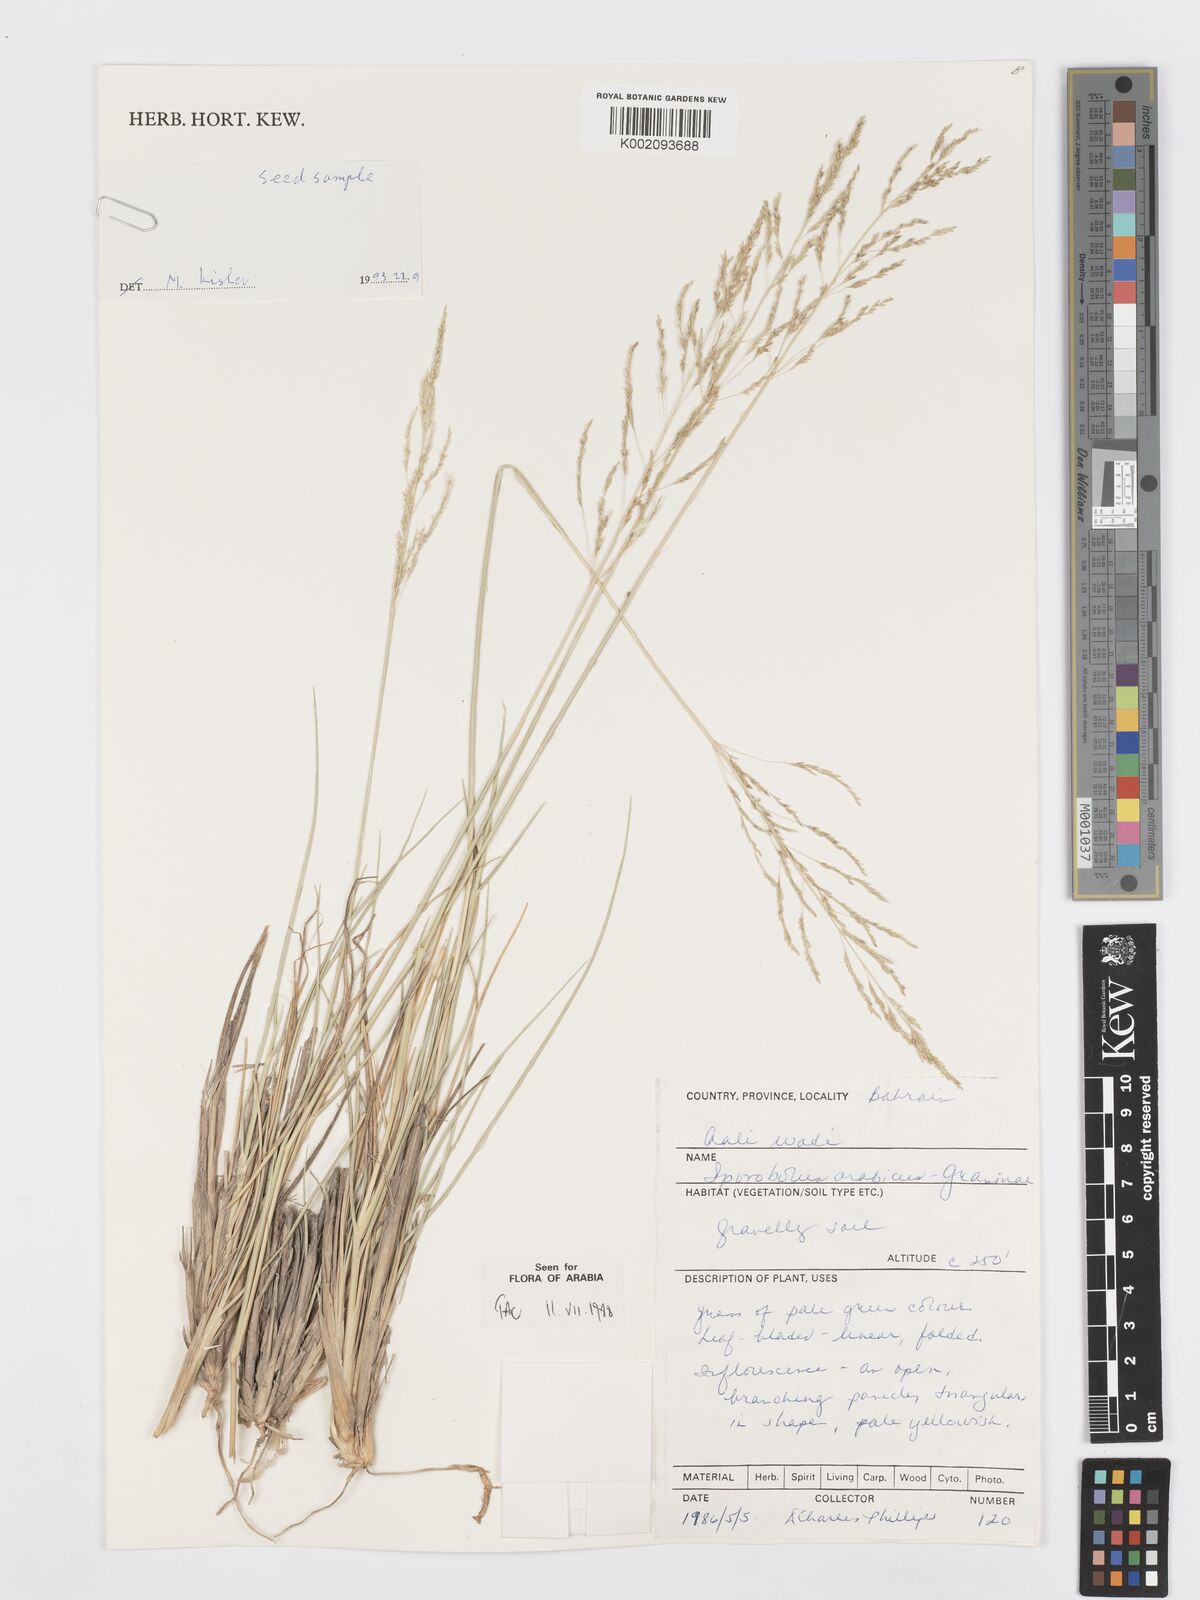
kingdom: Plantae
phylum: Tracheophyta
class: Liliopsida
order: Poales
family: Poaceae
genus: Sporobolus
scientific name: Sporobolus ioclados
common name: Pan dropseed
